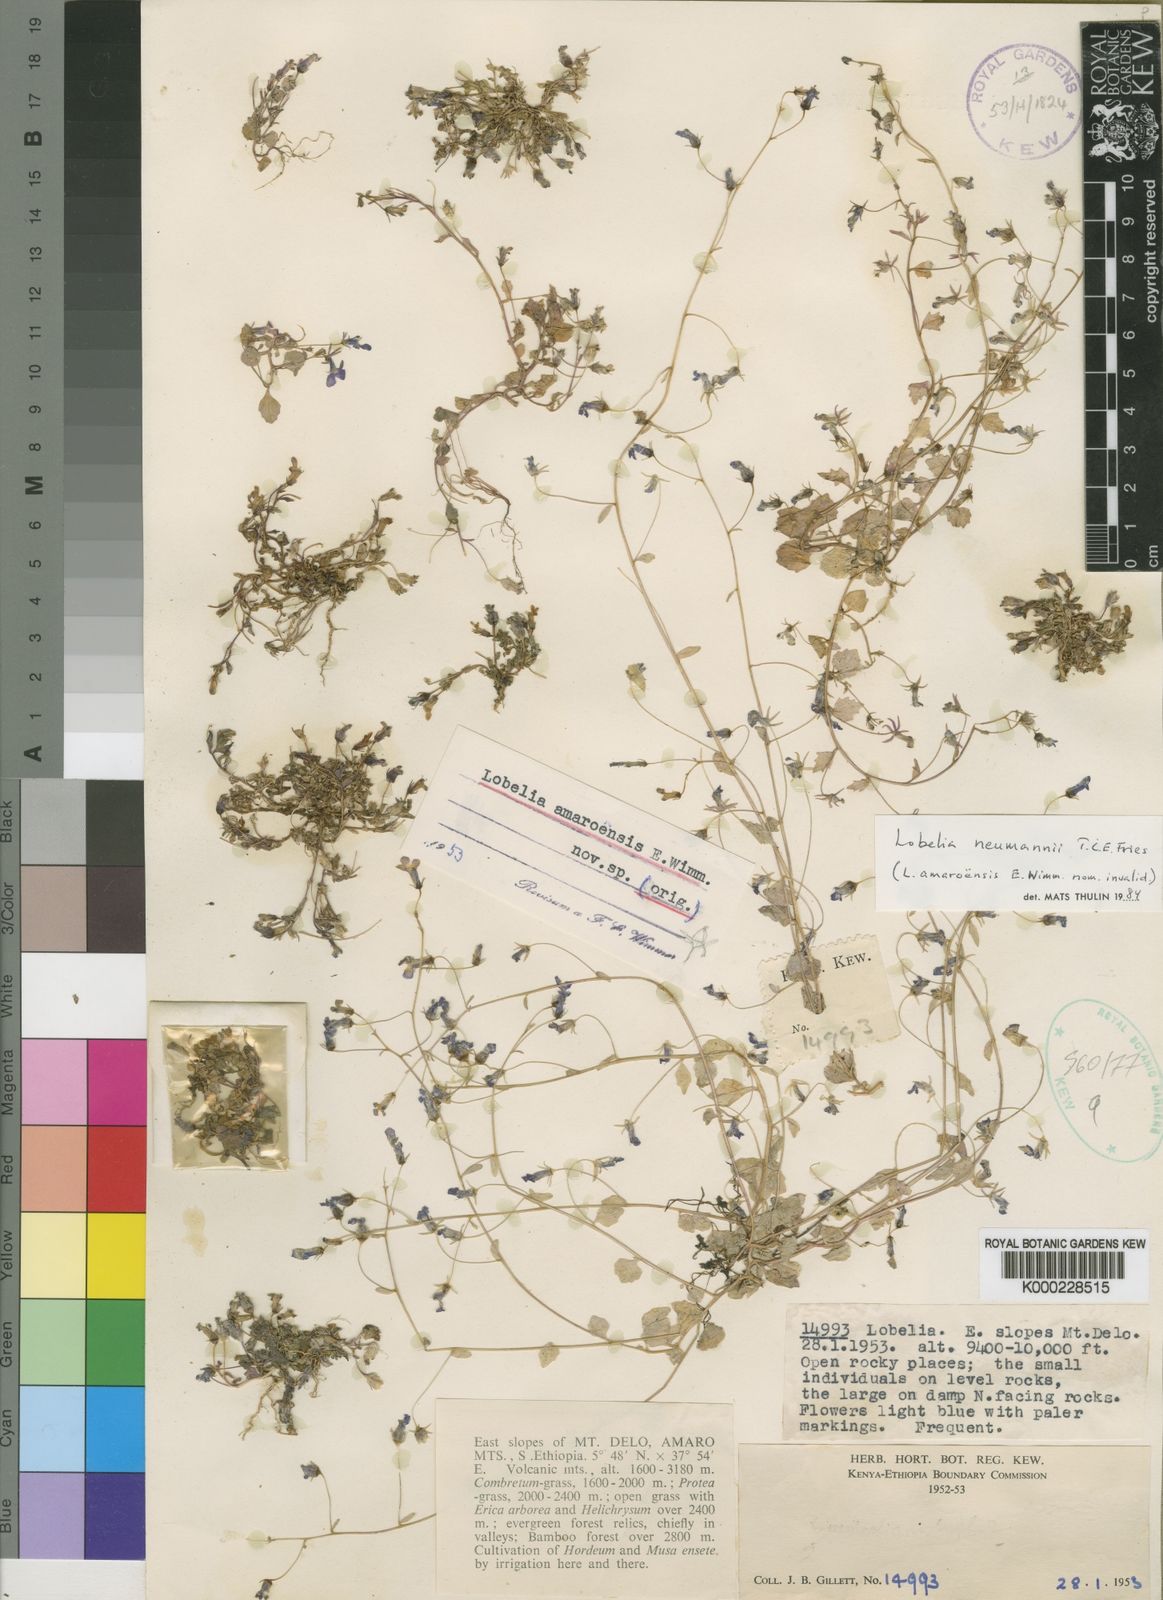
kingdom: Plantae
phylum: Tracheophyta
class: Magnoliopsida
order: Asterales
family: Campanulaceae
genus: Lobelia
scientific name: Lobelia neumannii
